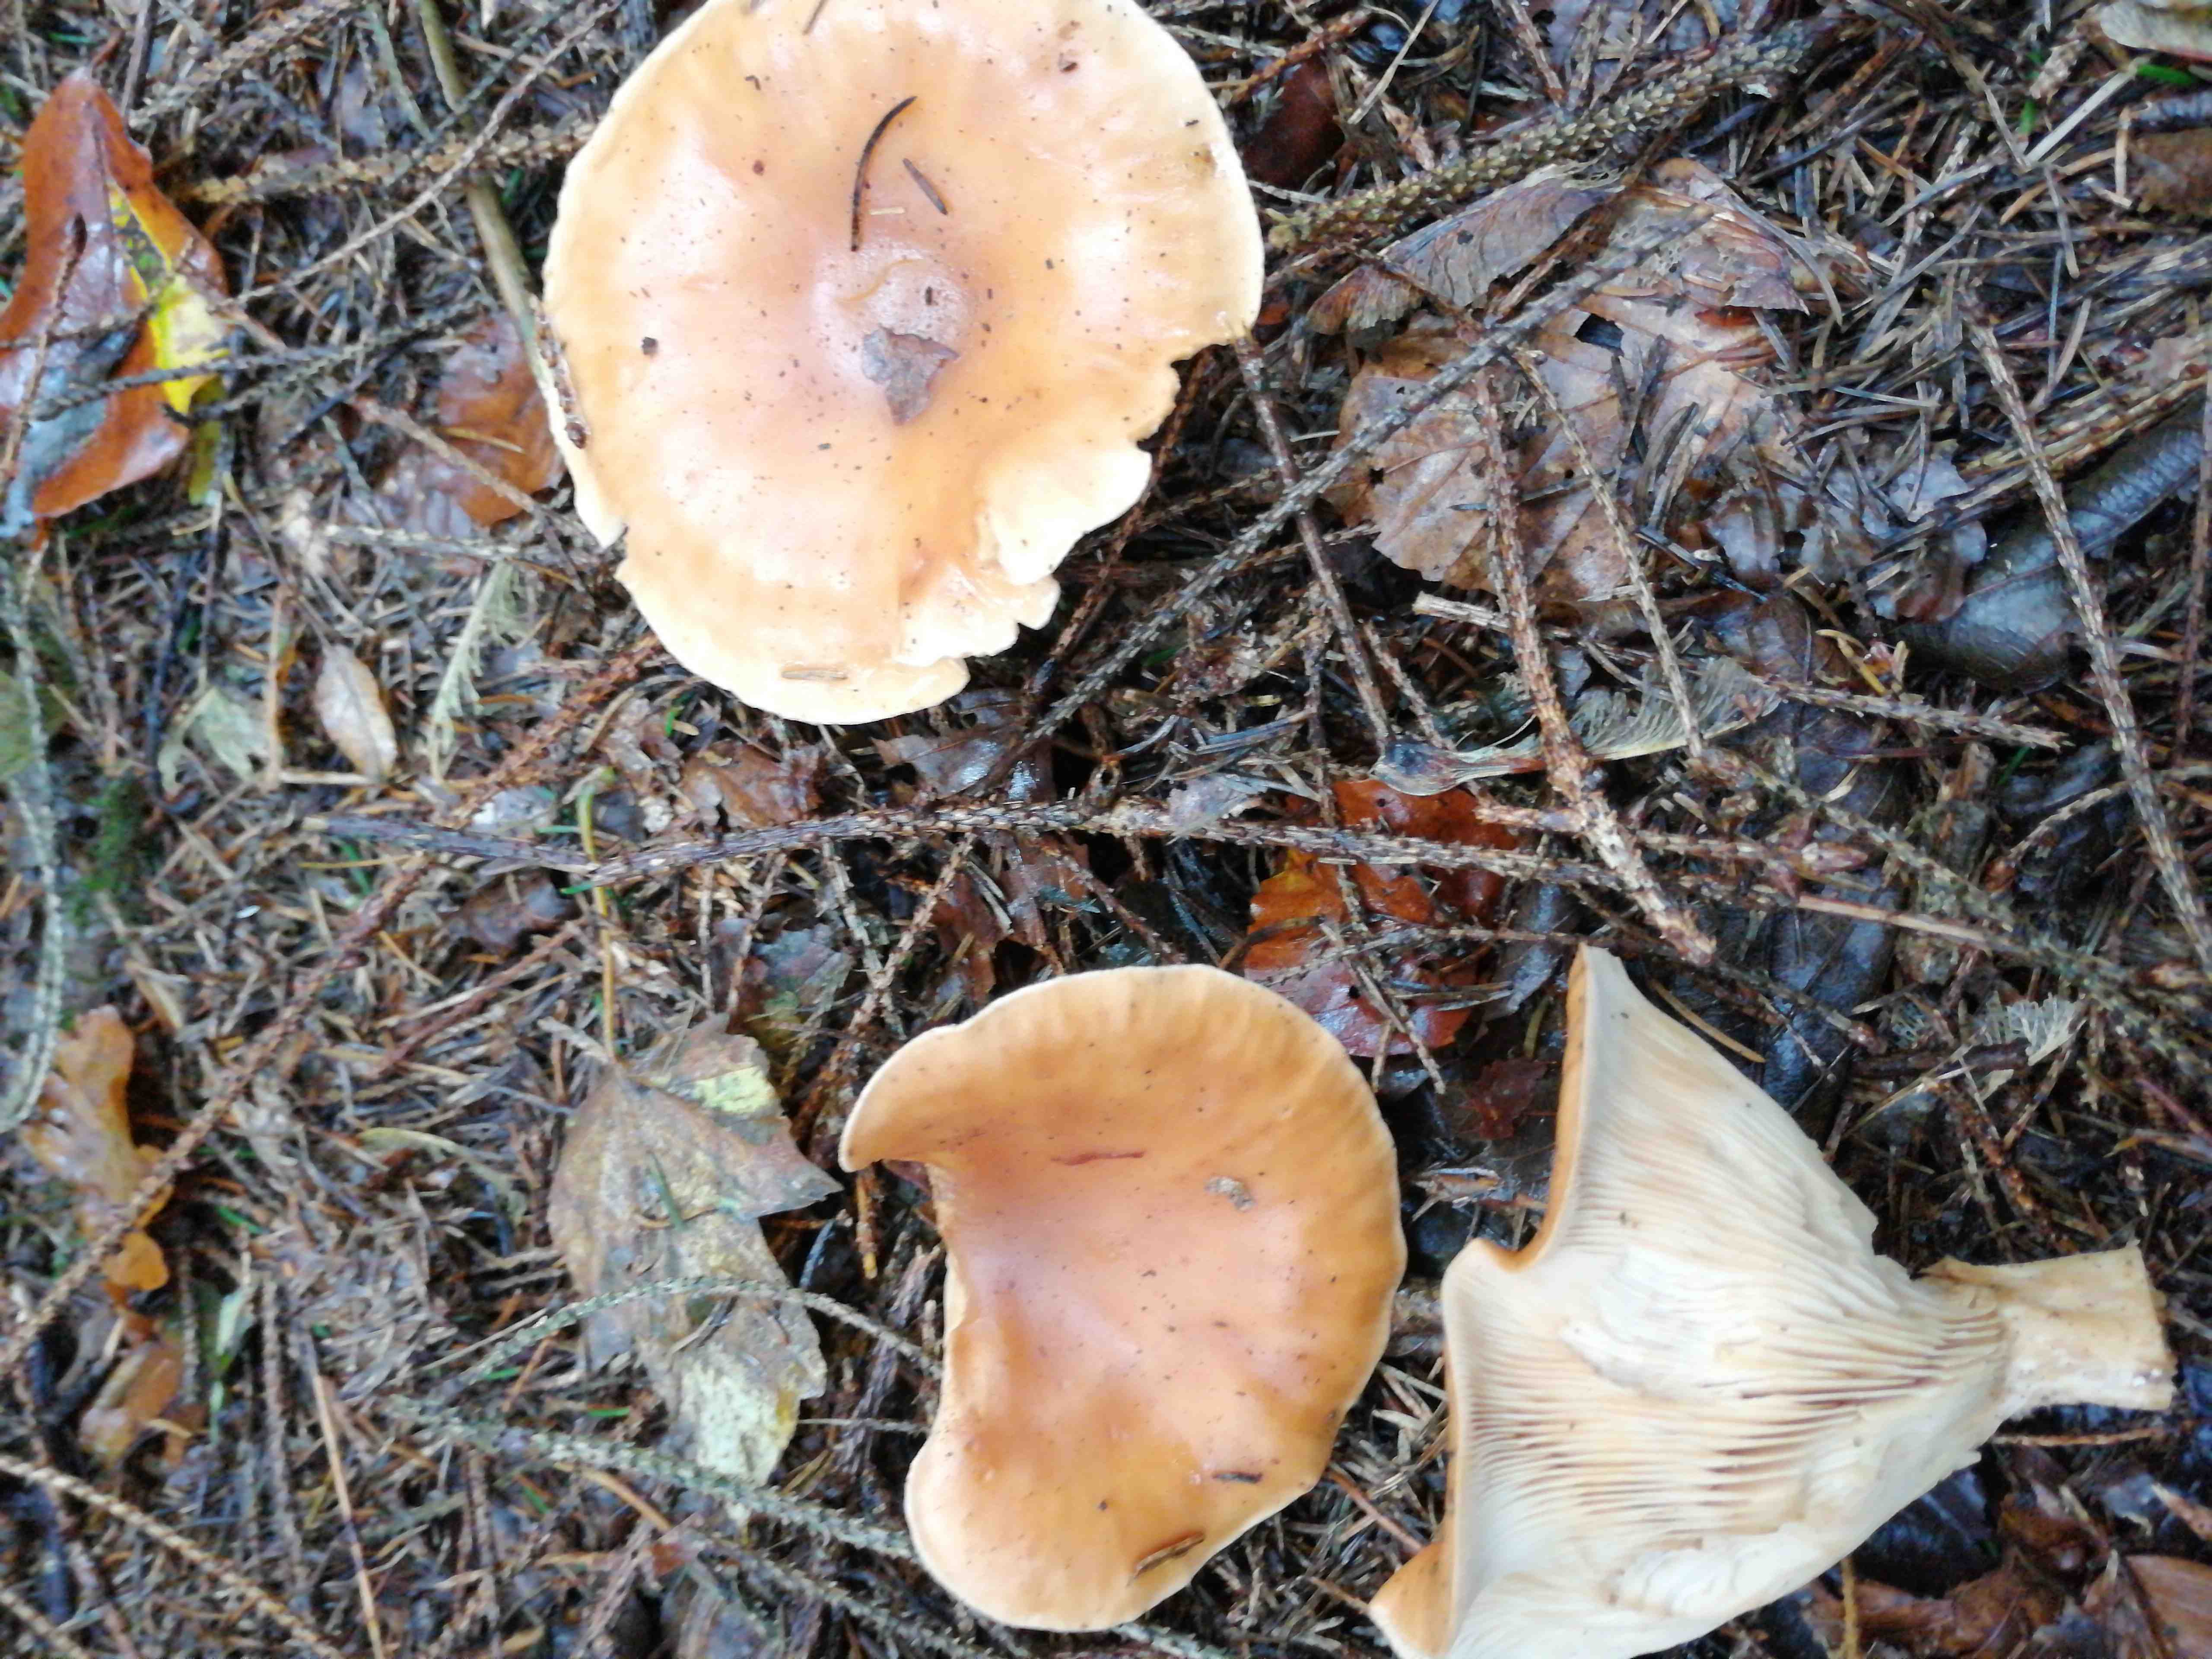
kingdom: Fungi
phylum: Basidiomycota
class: Agaricomycetes
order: Agaricales
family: Tricholomataceae
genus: Paralepista
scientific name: Paralepista flaccida
